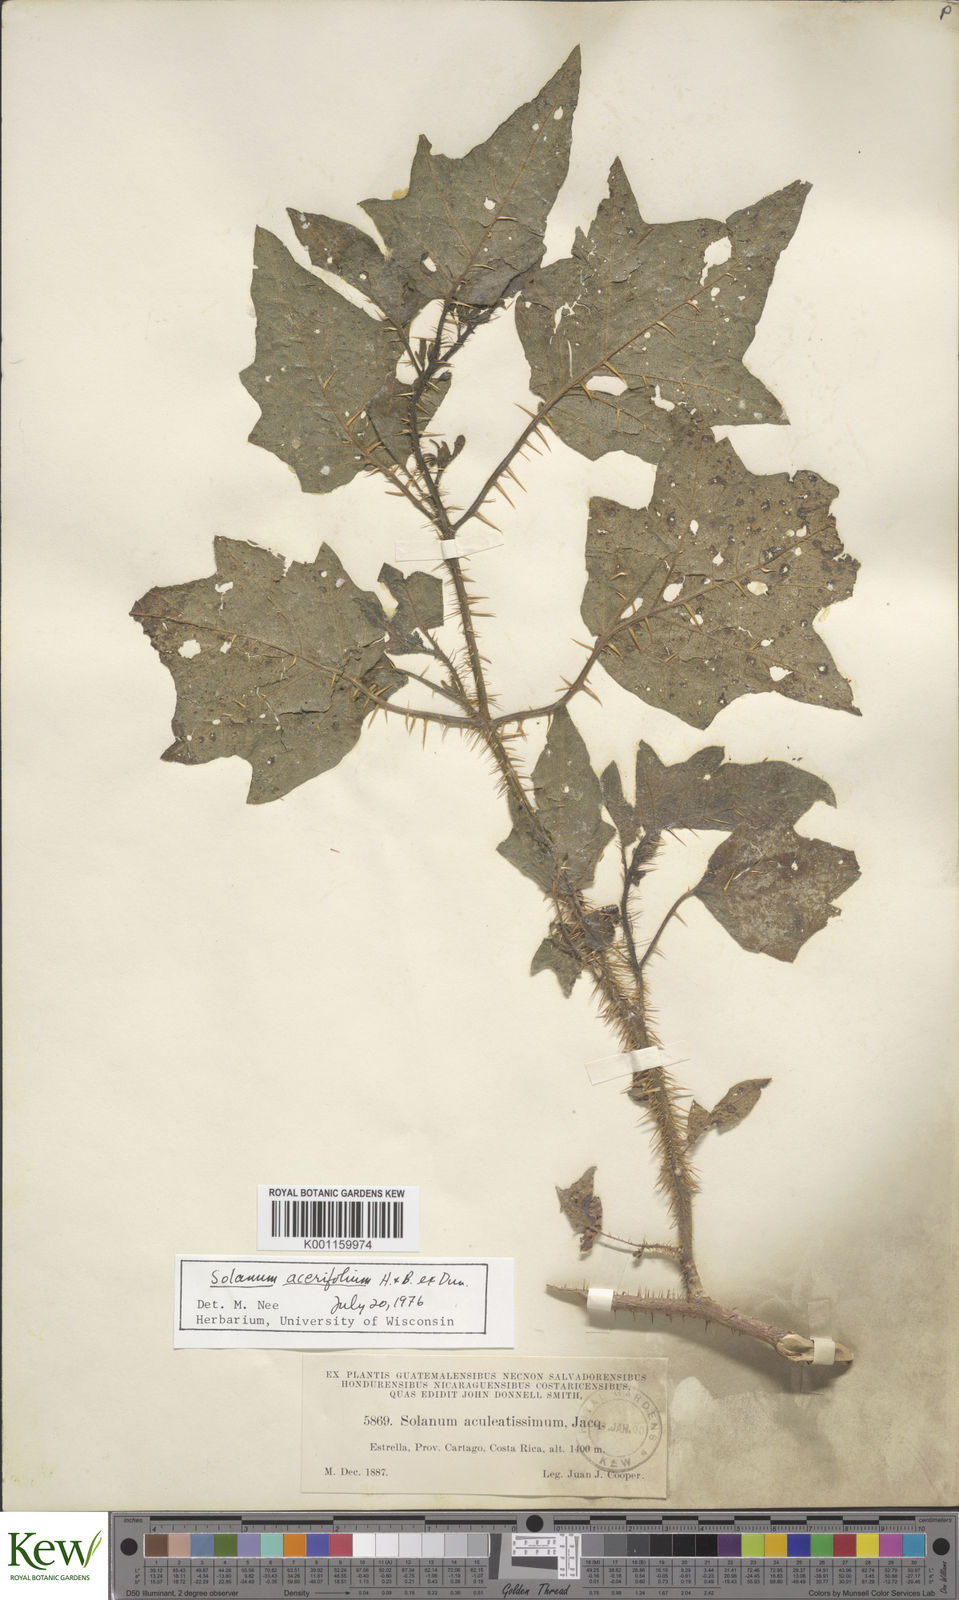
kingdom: Plantae
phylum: Tracheophyta
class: Magnoliopsida
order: Solanales
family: Solanaceae
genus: Solanum
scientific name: Solanum acerifolium
